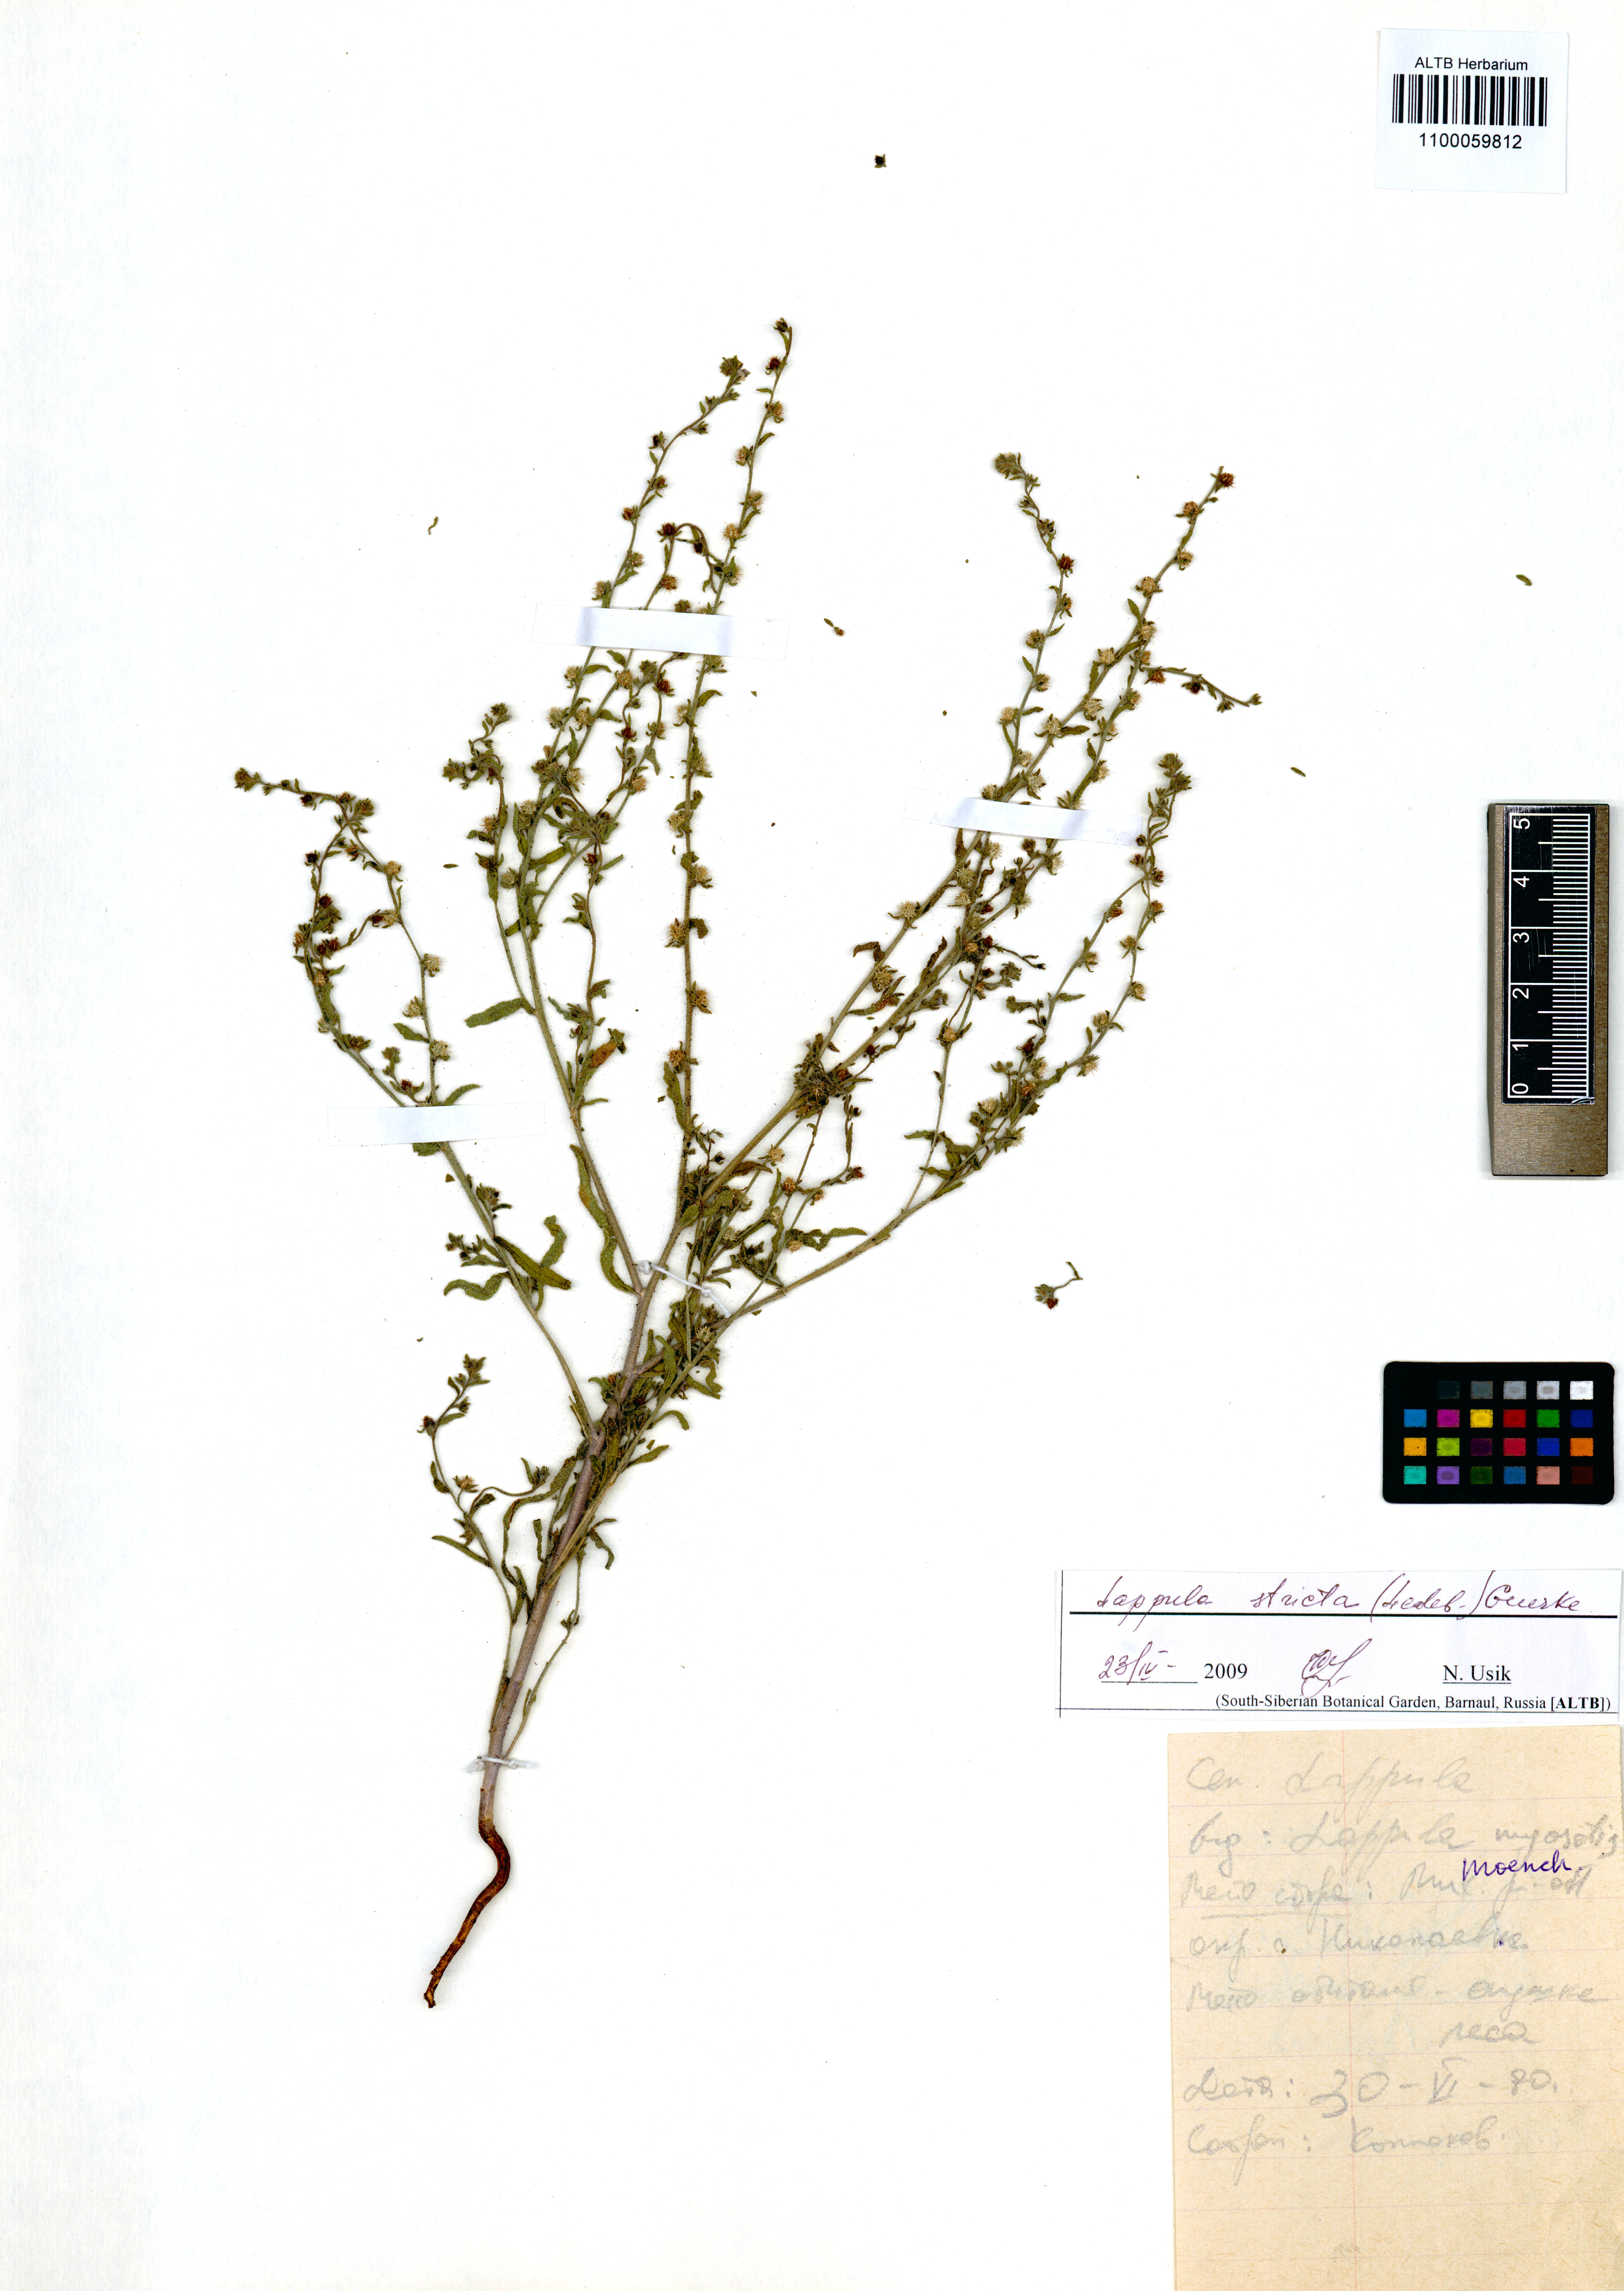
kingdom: Plantae
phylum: Tracheophyta
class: Magnoliopsida
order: Boraginales
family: Boraginaceae
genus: Lappula
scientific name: Lappula stricta
